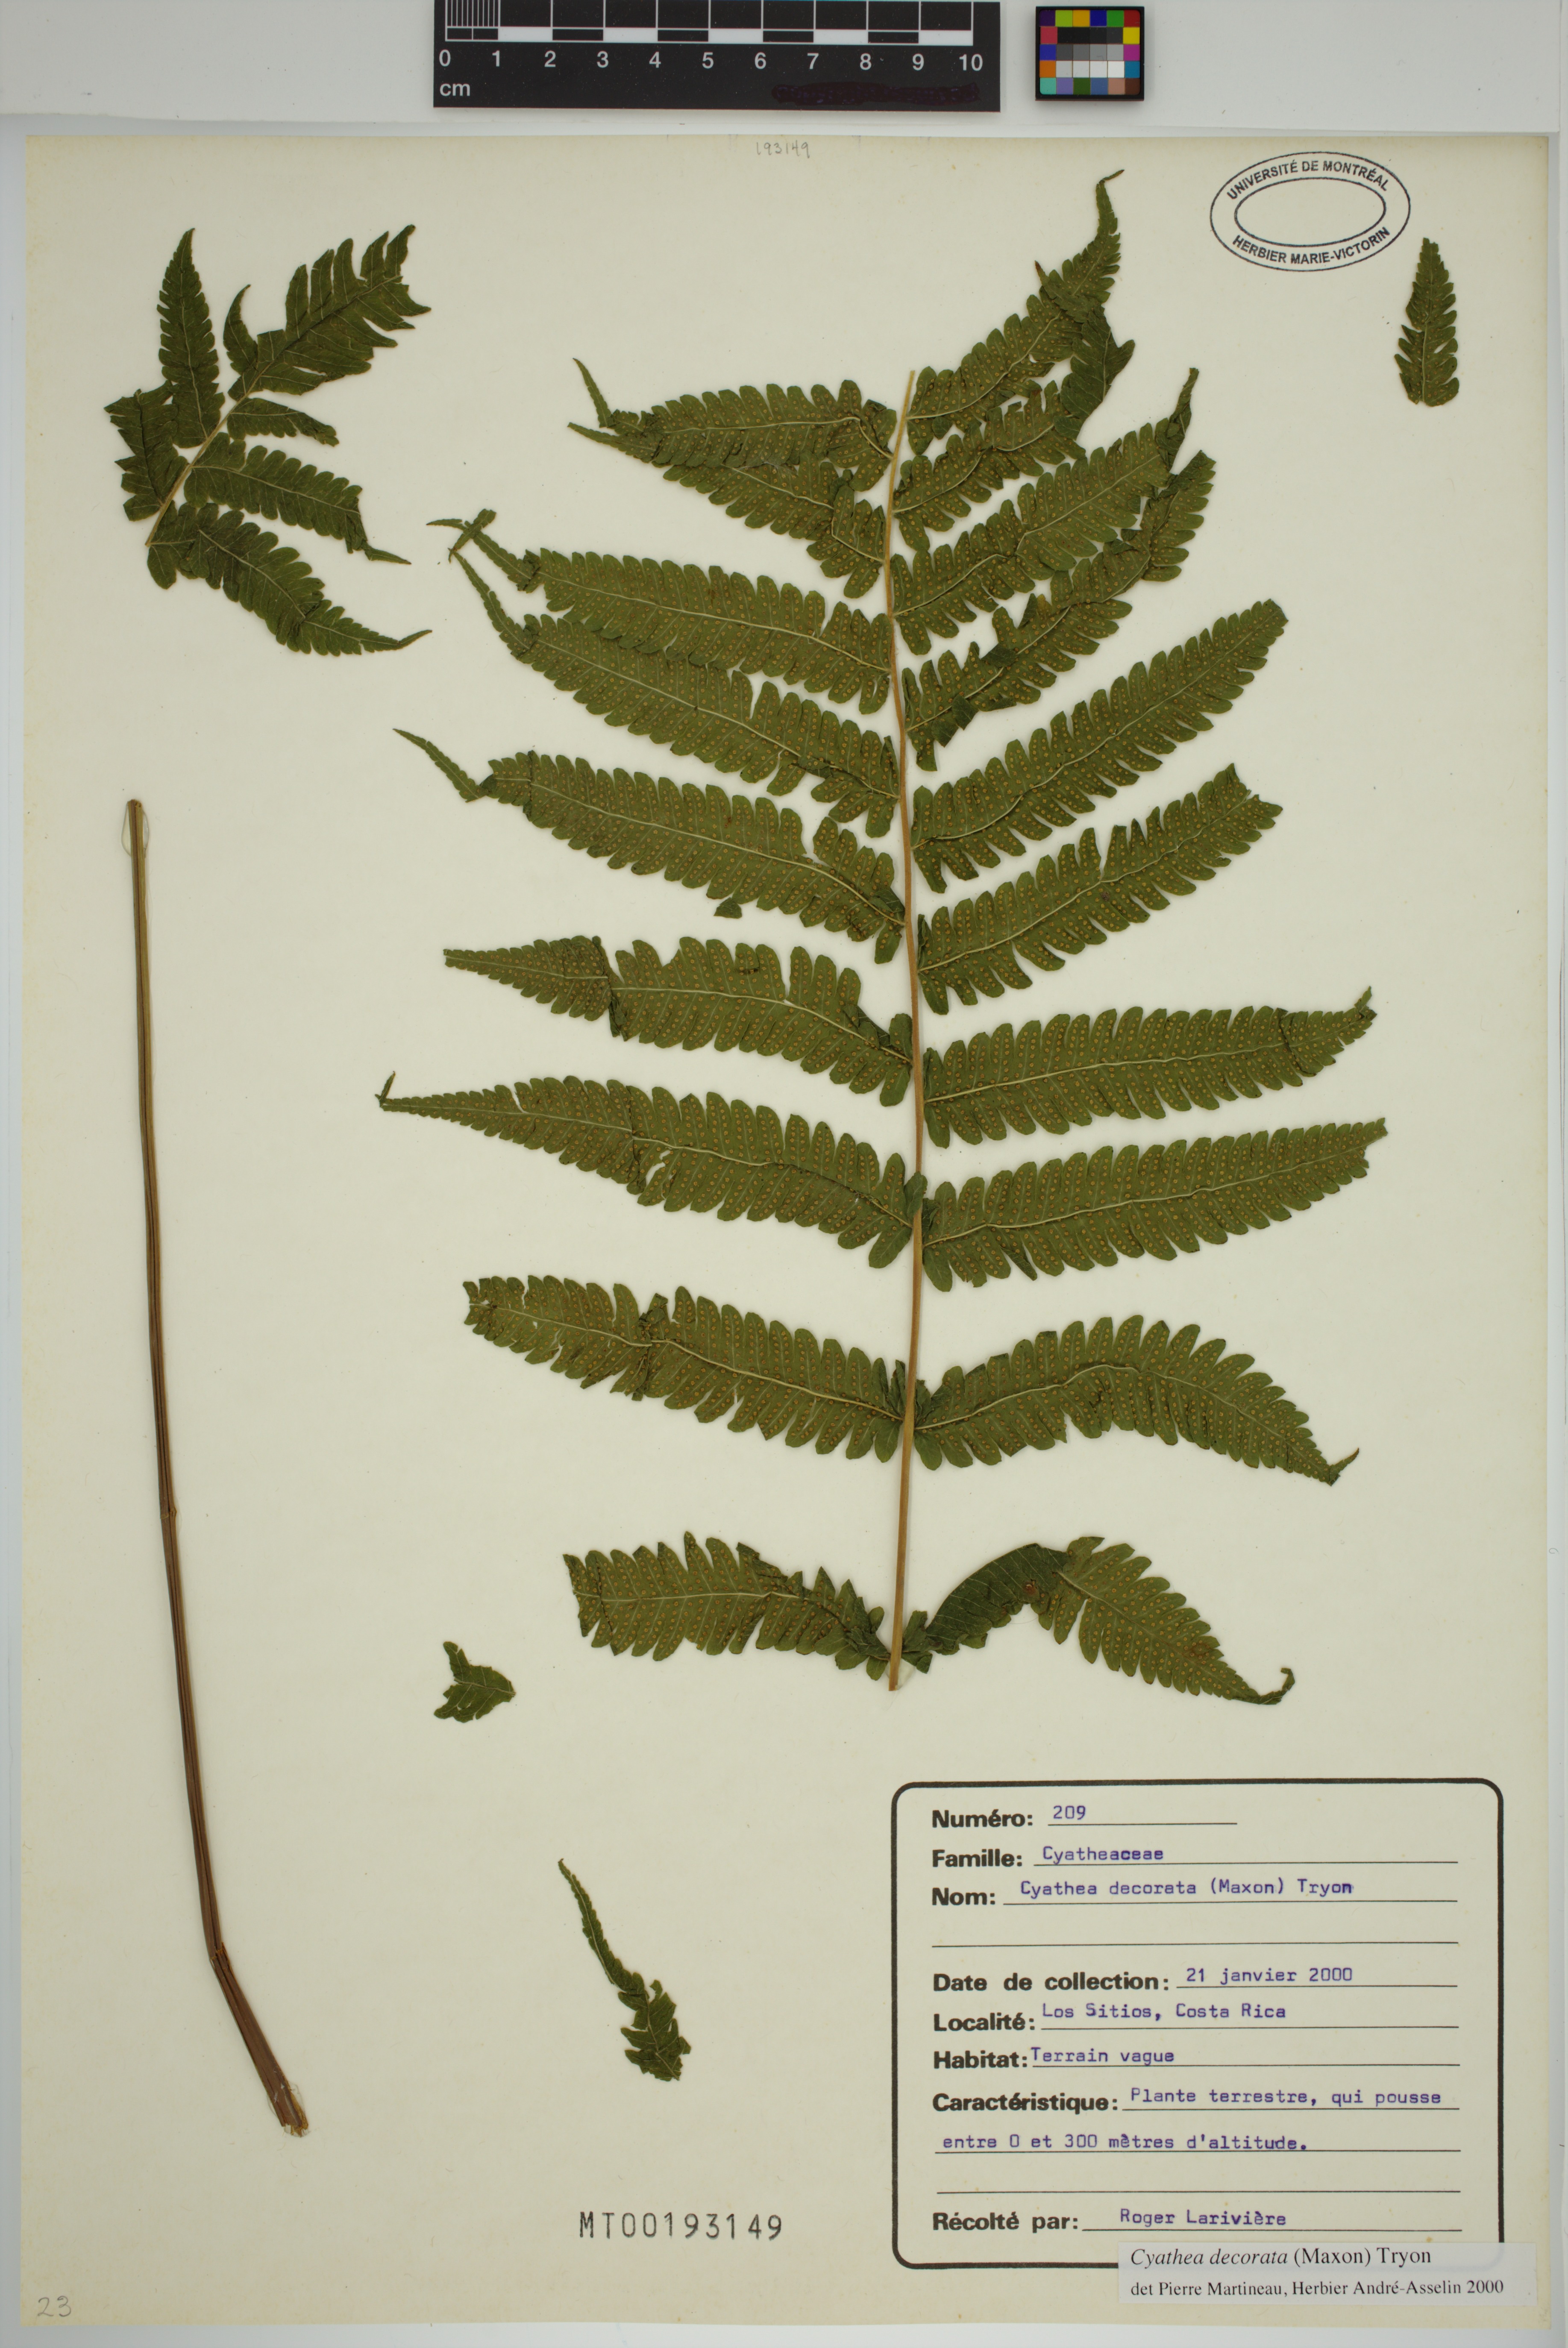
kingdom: Plantae
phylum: Tracheophyta
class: Polypodiopsida
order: Cyatheales
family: Cyatheaceae
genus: Cyathea
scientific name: Cyathea decorata
